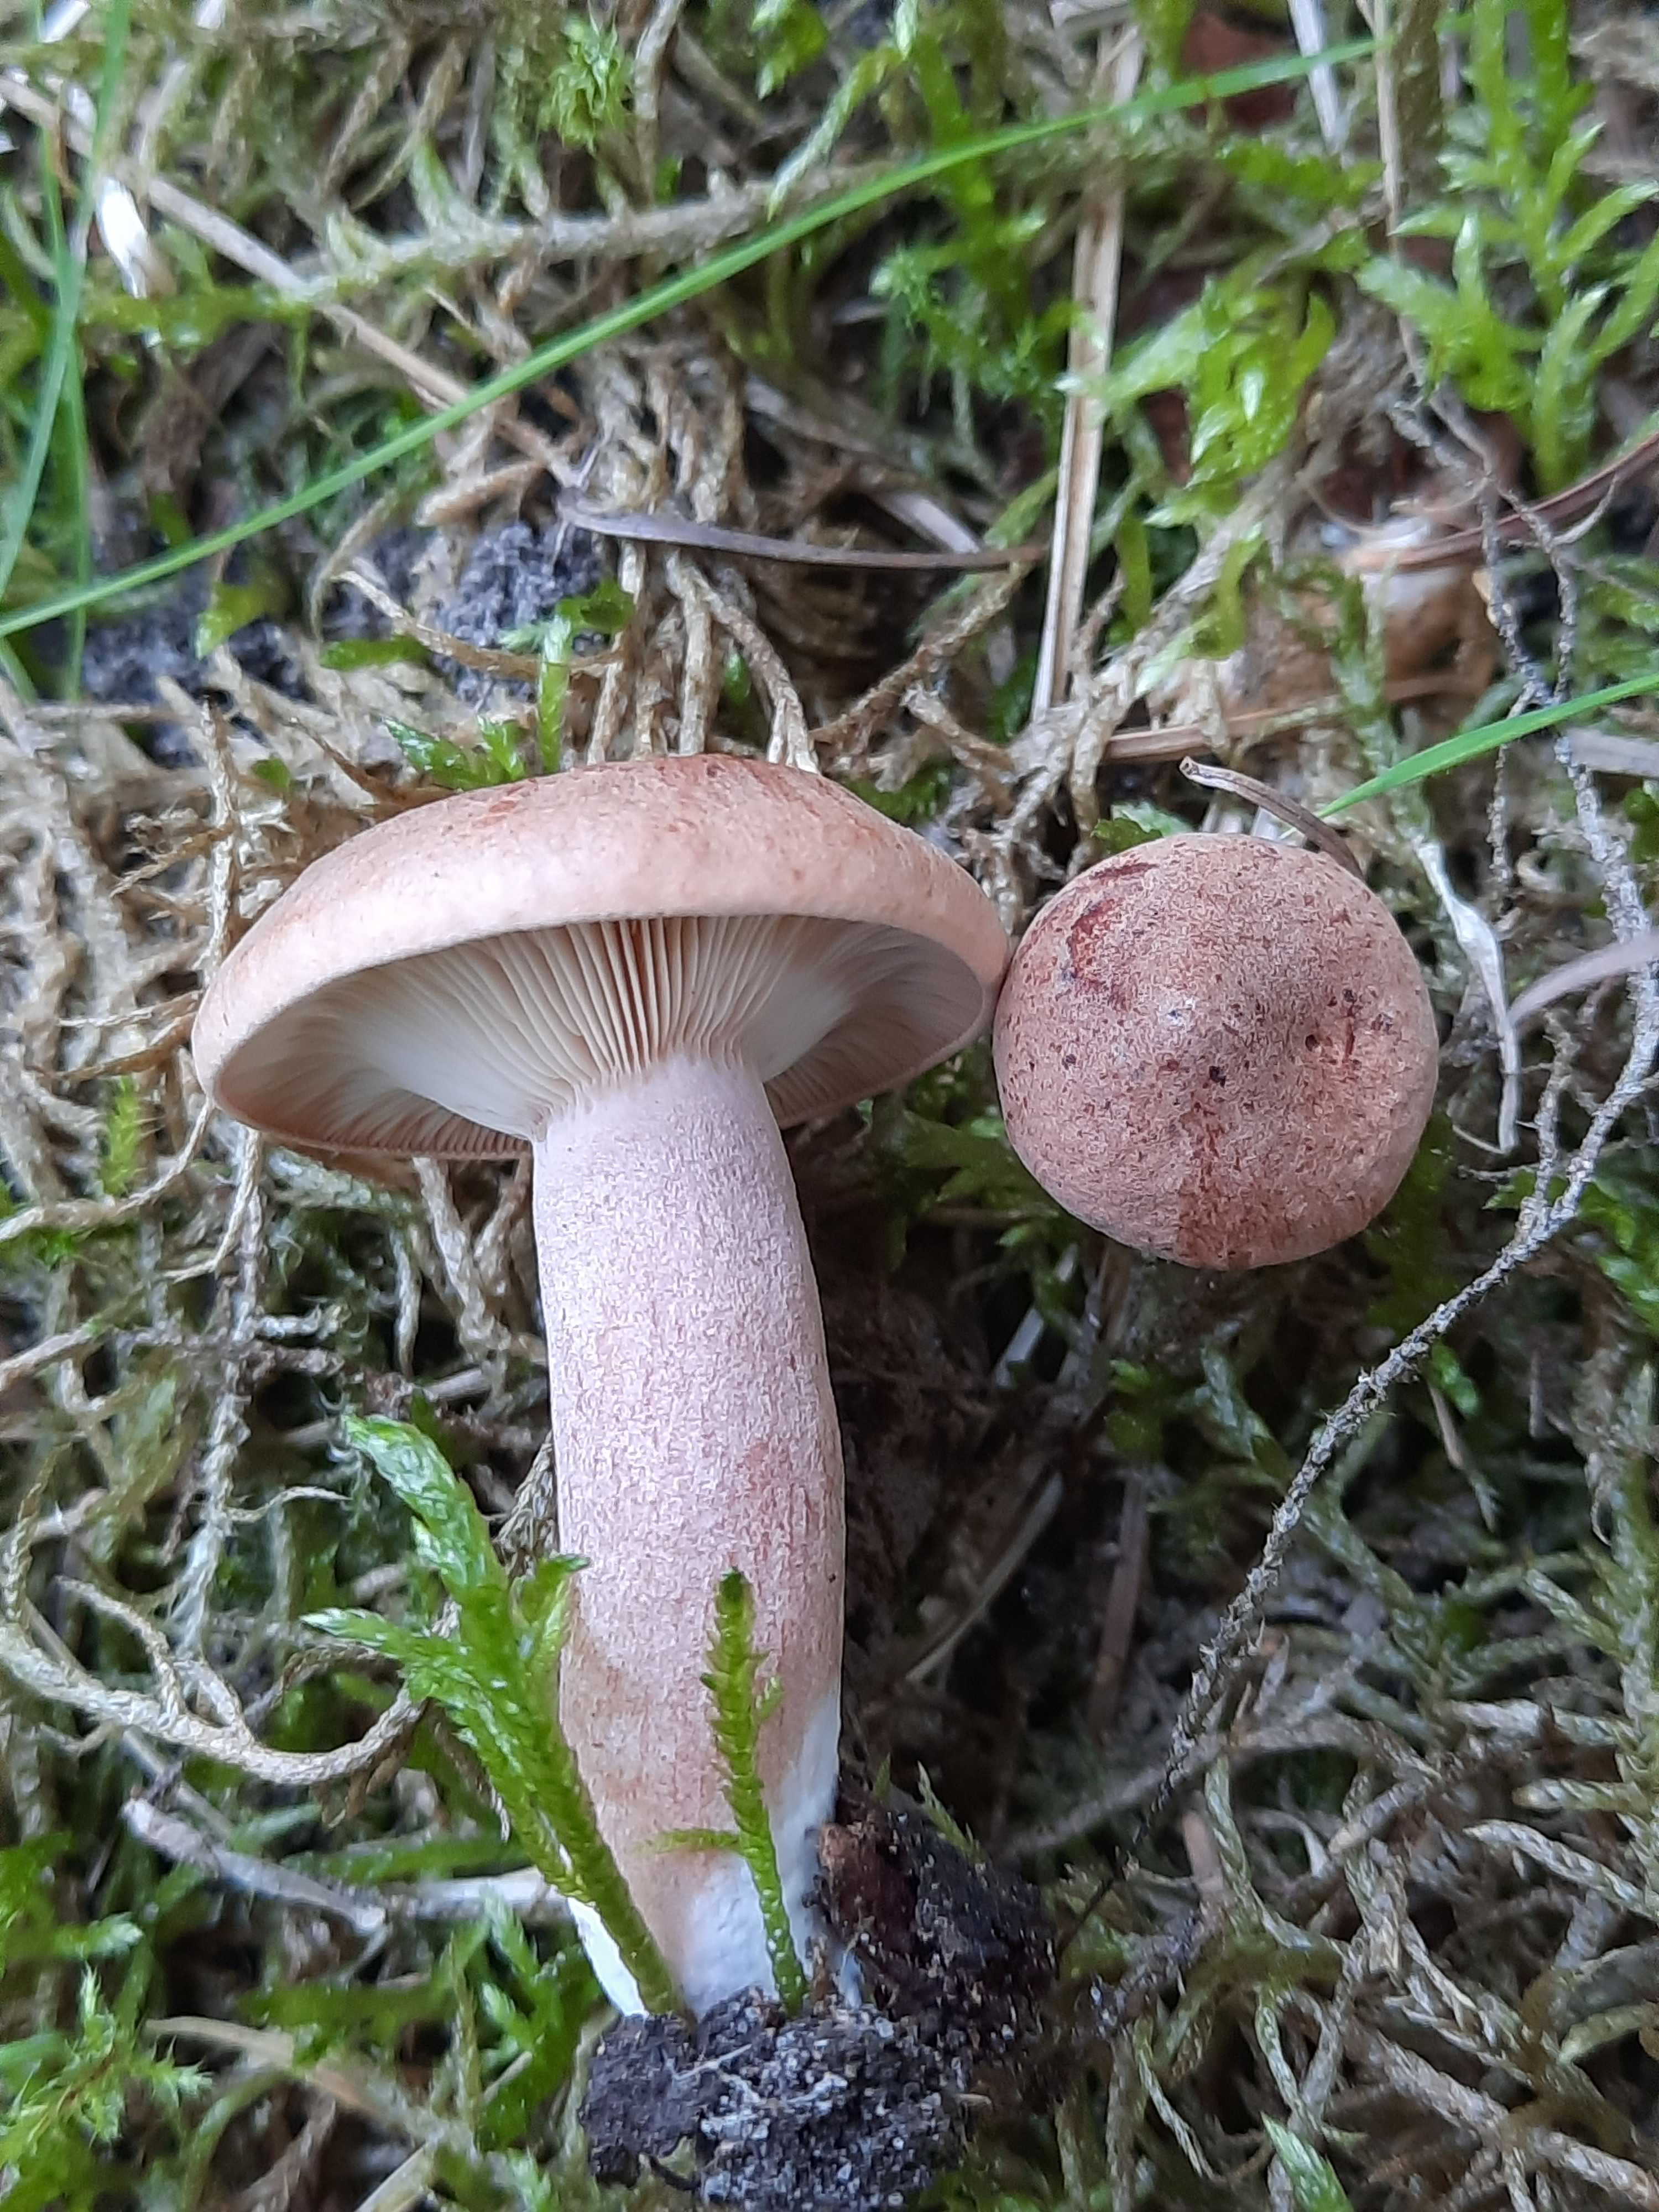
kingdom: Fungi
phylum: Basidiomycota
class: Agaricomycetes
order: Russulales
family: Russulaceae
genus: Lactarius
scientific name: Lactarius rufus
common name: rødbrun mælkehat
